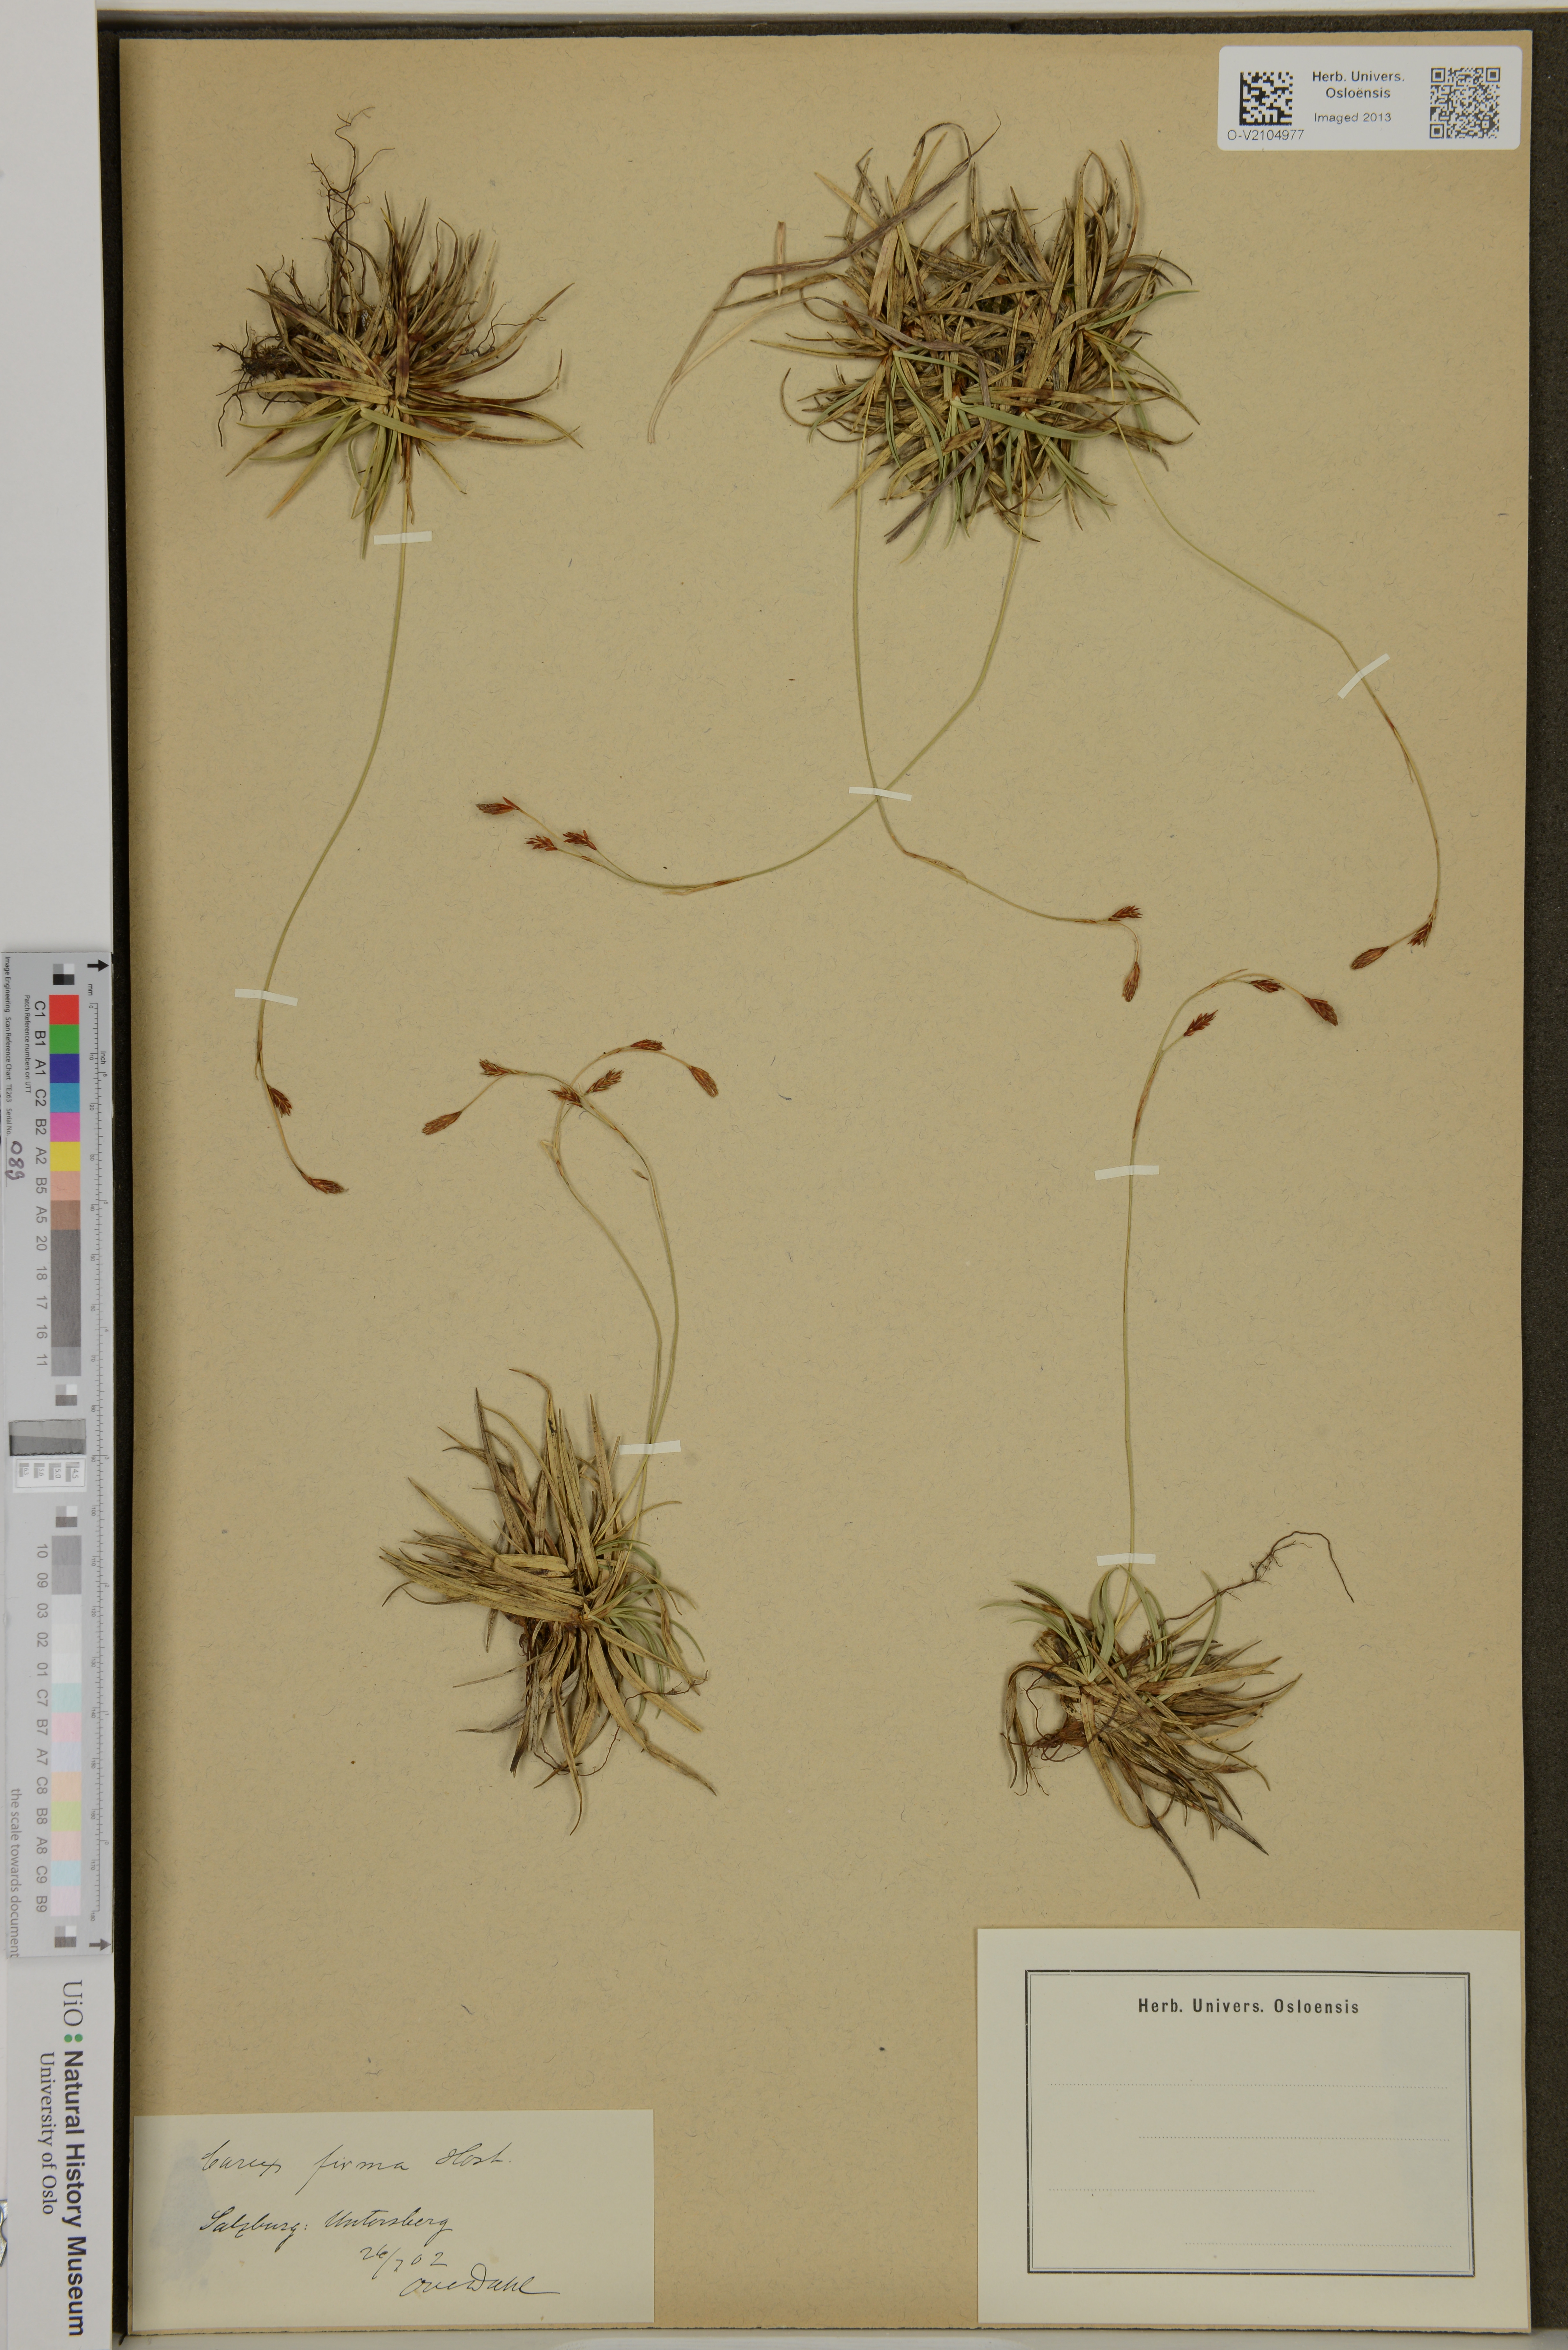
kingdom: Plantae
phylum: Tracheophyta
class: Liliopsida
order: Poales
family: Cyperaceae
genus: Carex
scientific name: Carex firma
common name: Dwarf pillow sedge
